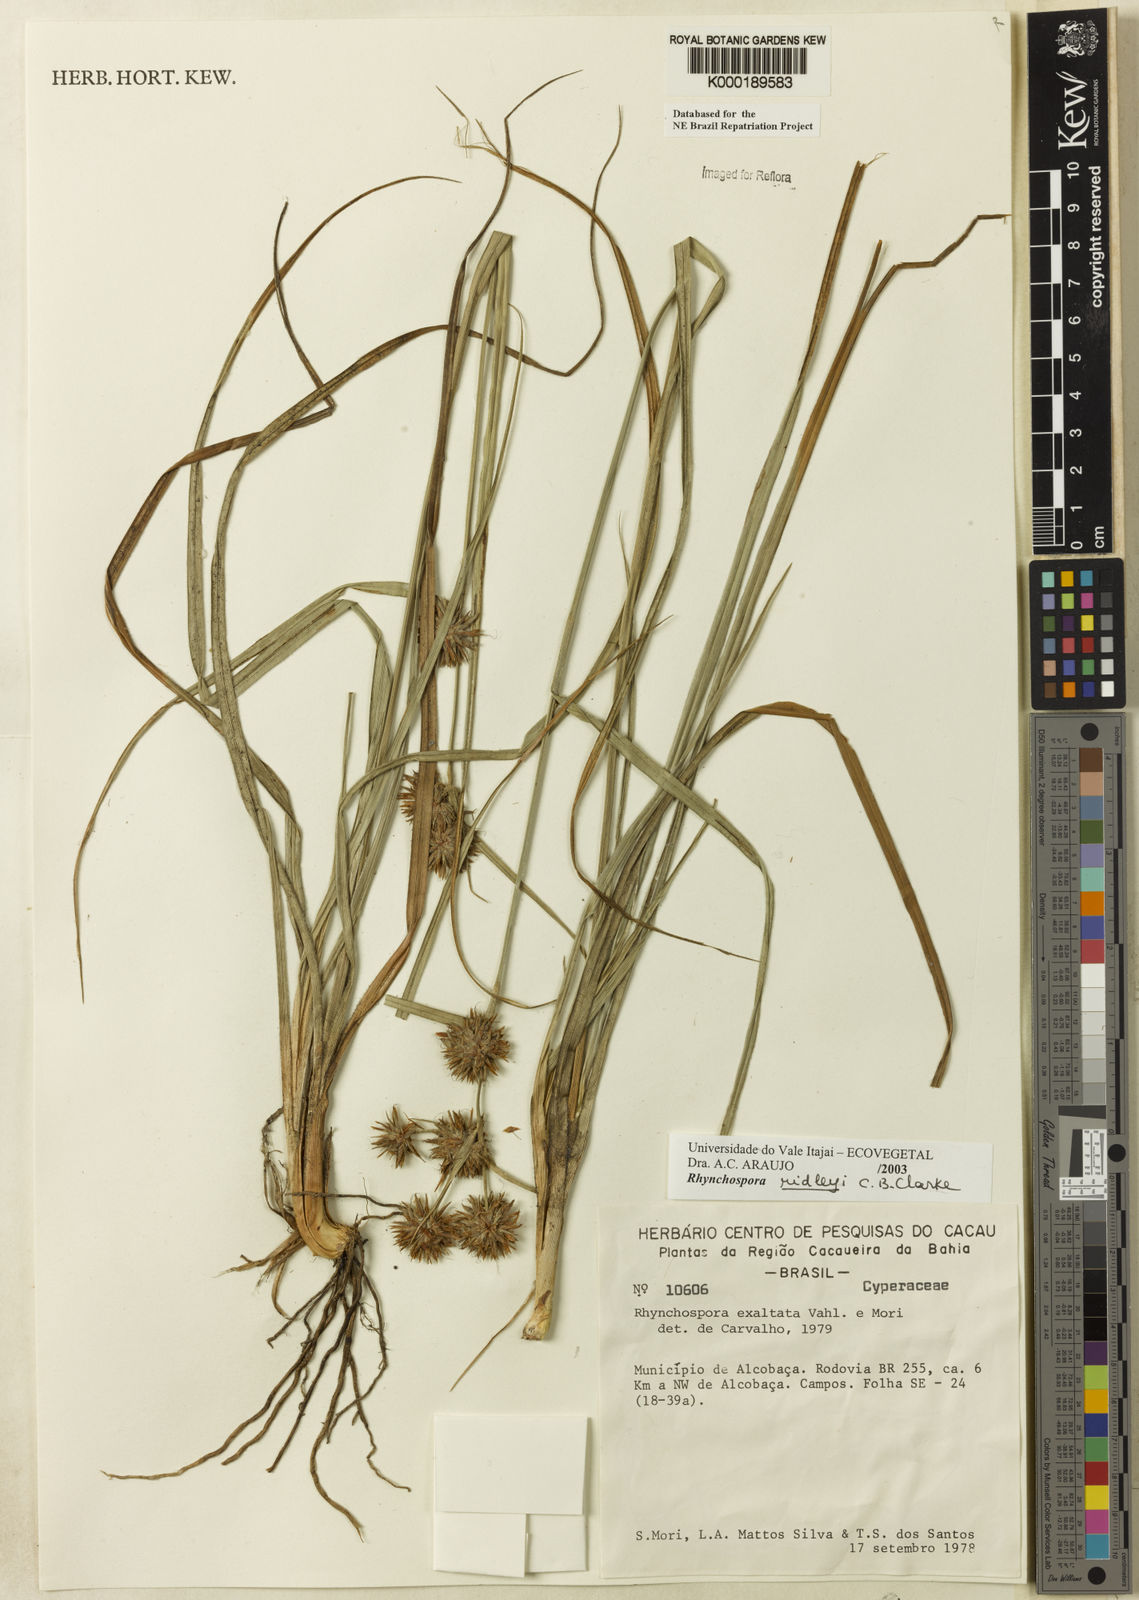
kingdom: Plantae
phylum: Tracheophyta
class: Liliopsida
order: Poales
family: Cyperaceae
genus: Rhynchospora
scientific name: Rhynchospora ridleyi
